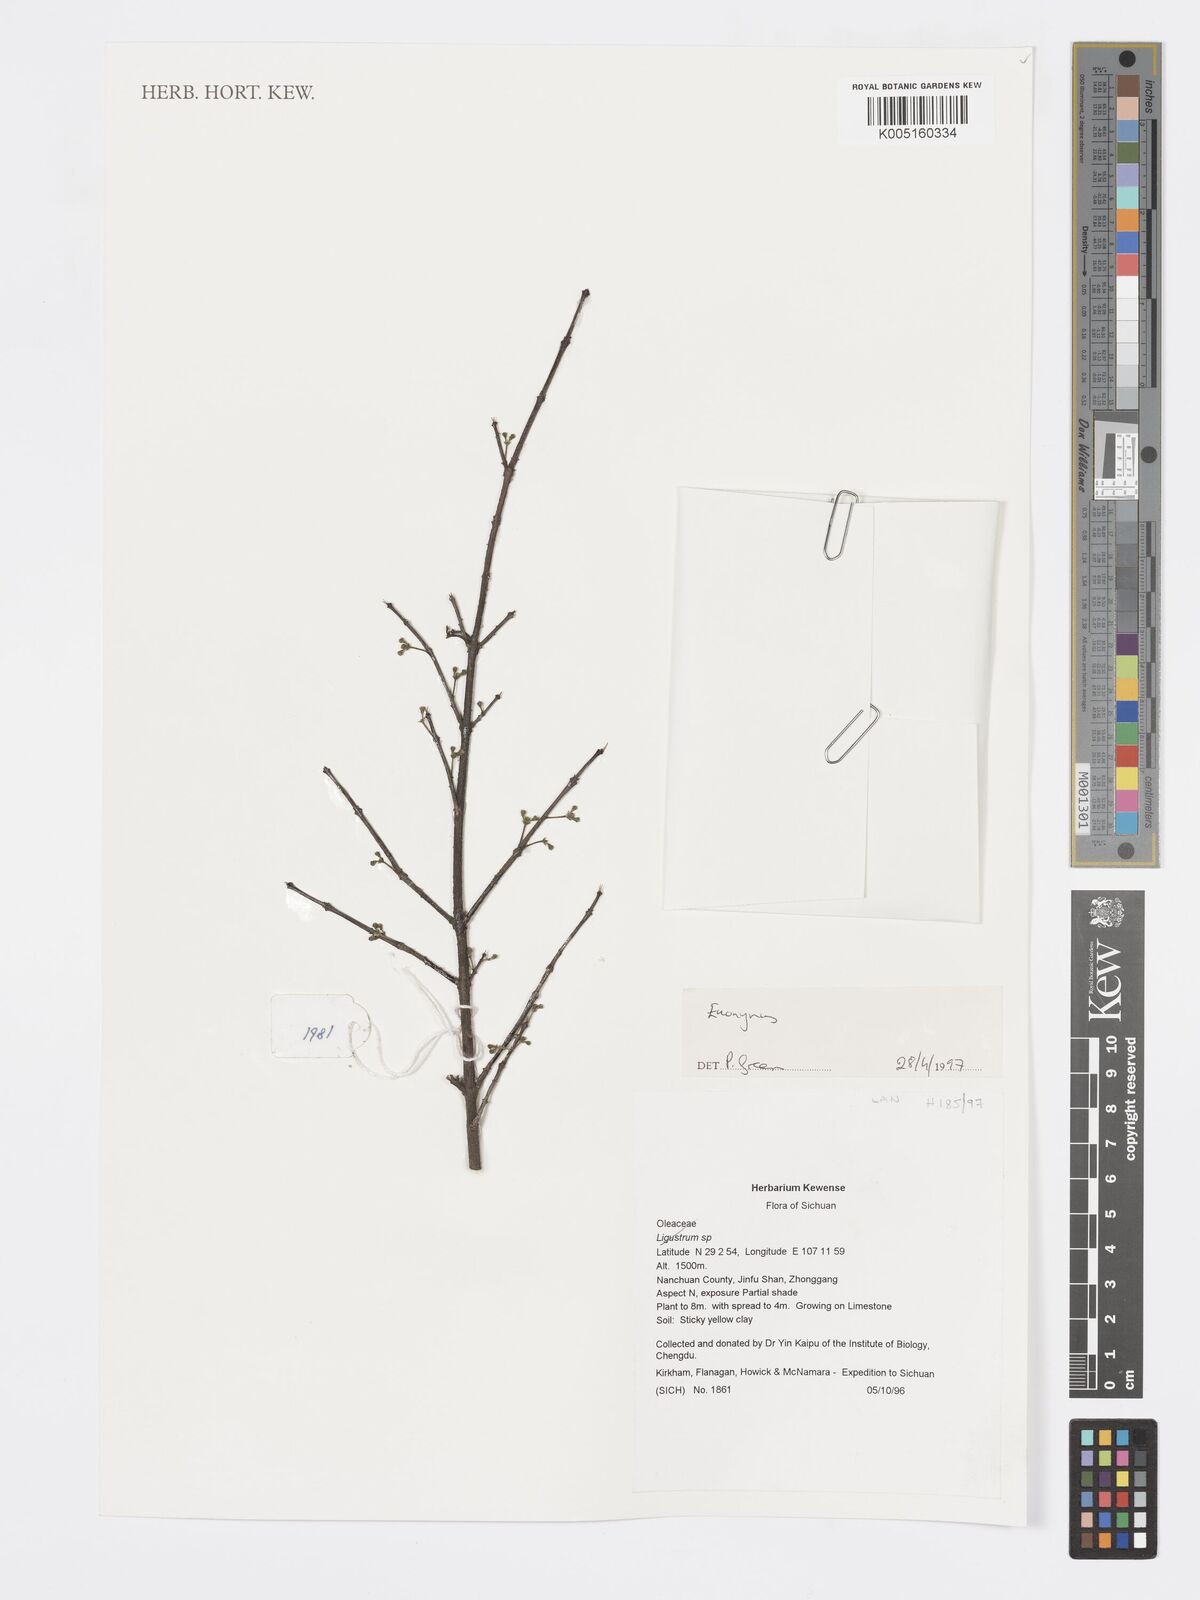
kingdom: Plantae
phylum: Tracheophyta
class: Magnoliopsida
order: Celastrales
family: Celastraceae
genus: Euonymus
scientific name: Euonymus
